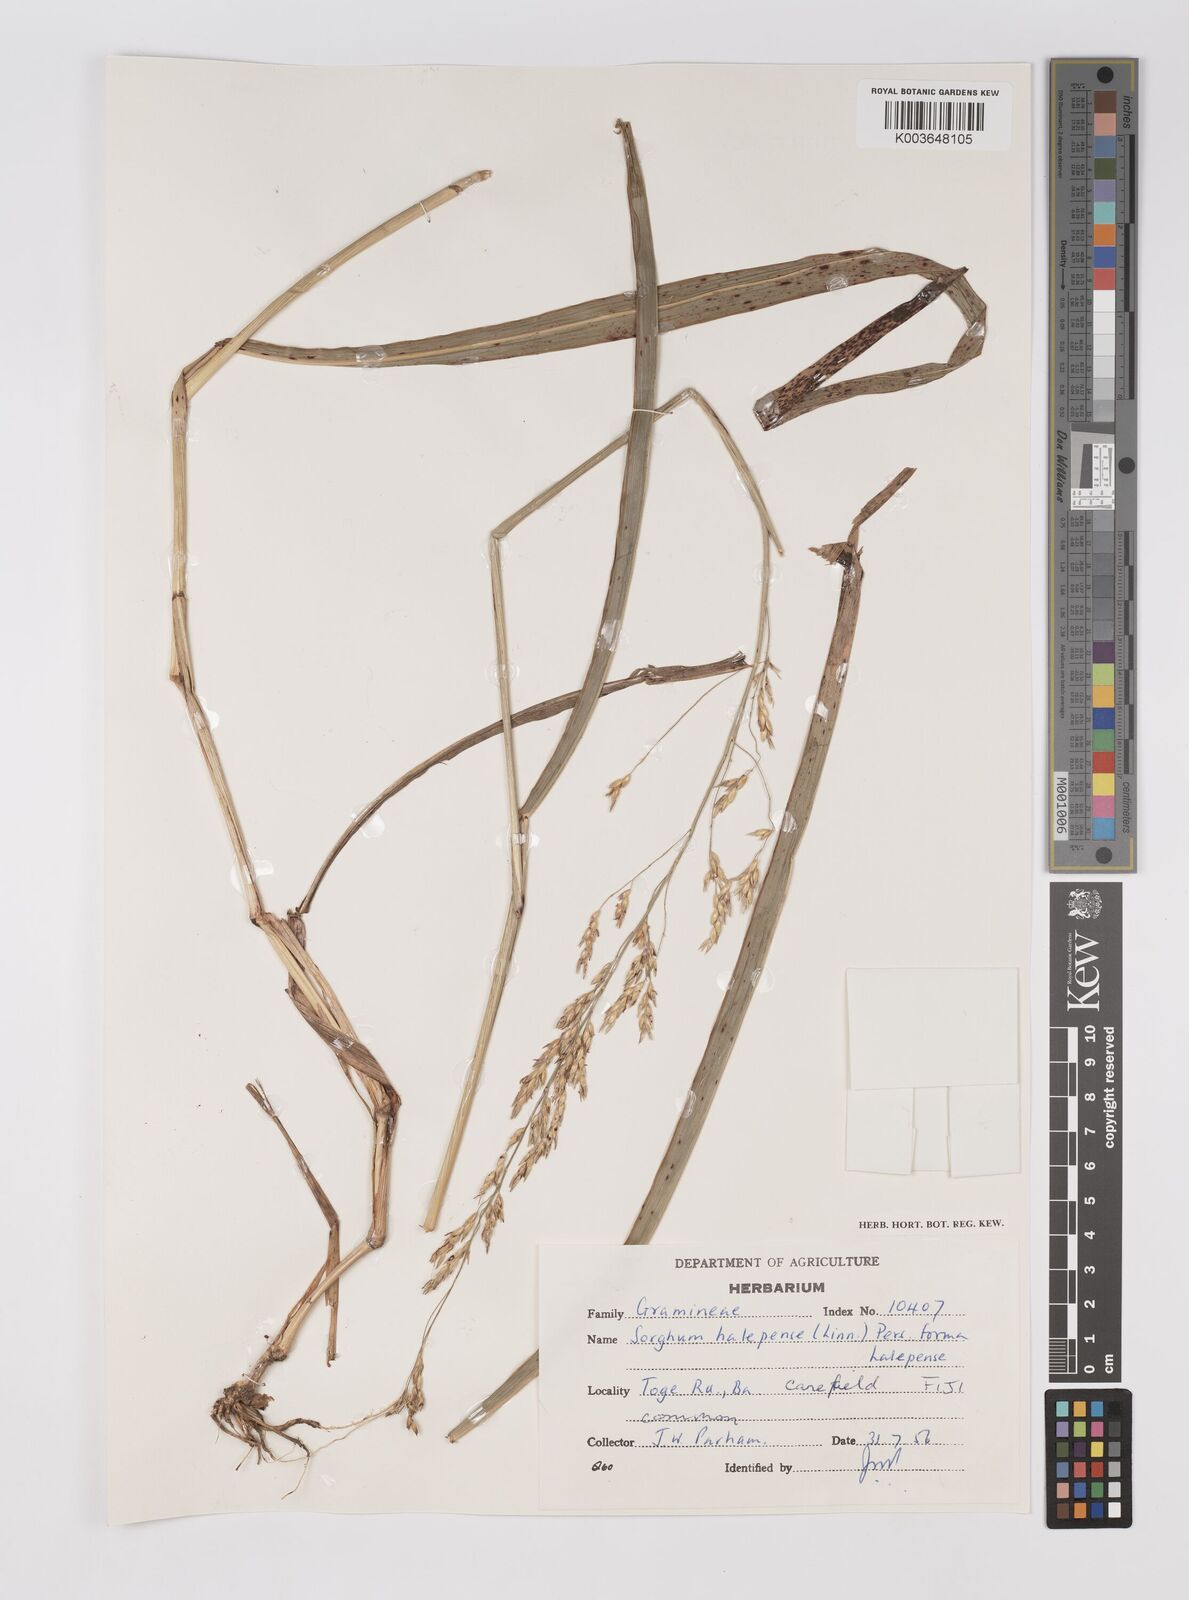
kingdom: Plantae
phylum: Tracheophyta
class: Liliopsida
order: Poales
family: Poaceae
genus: Sorghum
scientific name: Sorghum halepense
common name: Johnson-grass
